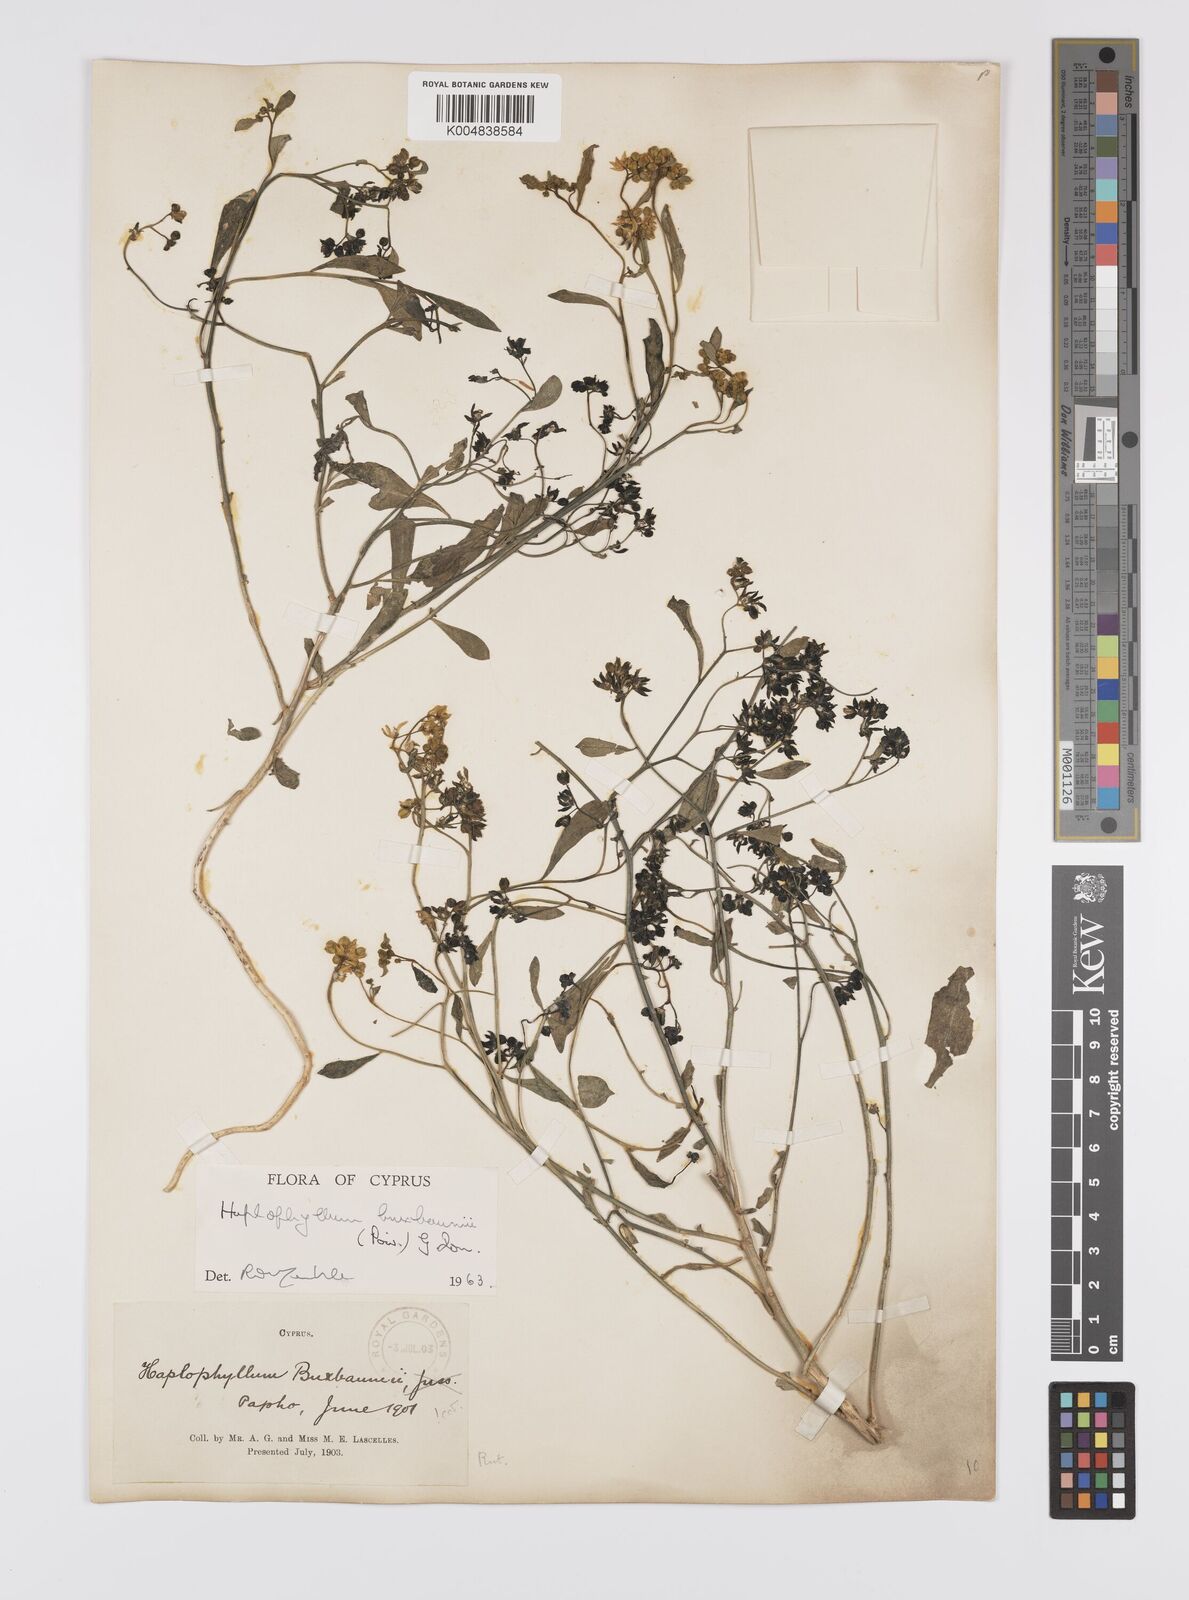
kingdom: Plantae
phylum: Tracheophyta
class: Magnoliopsida
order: Sapindales
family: Rutaceae
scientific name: Rutaceae
